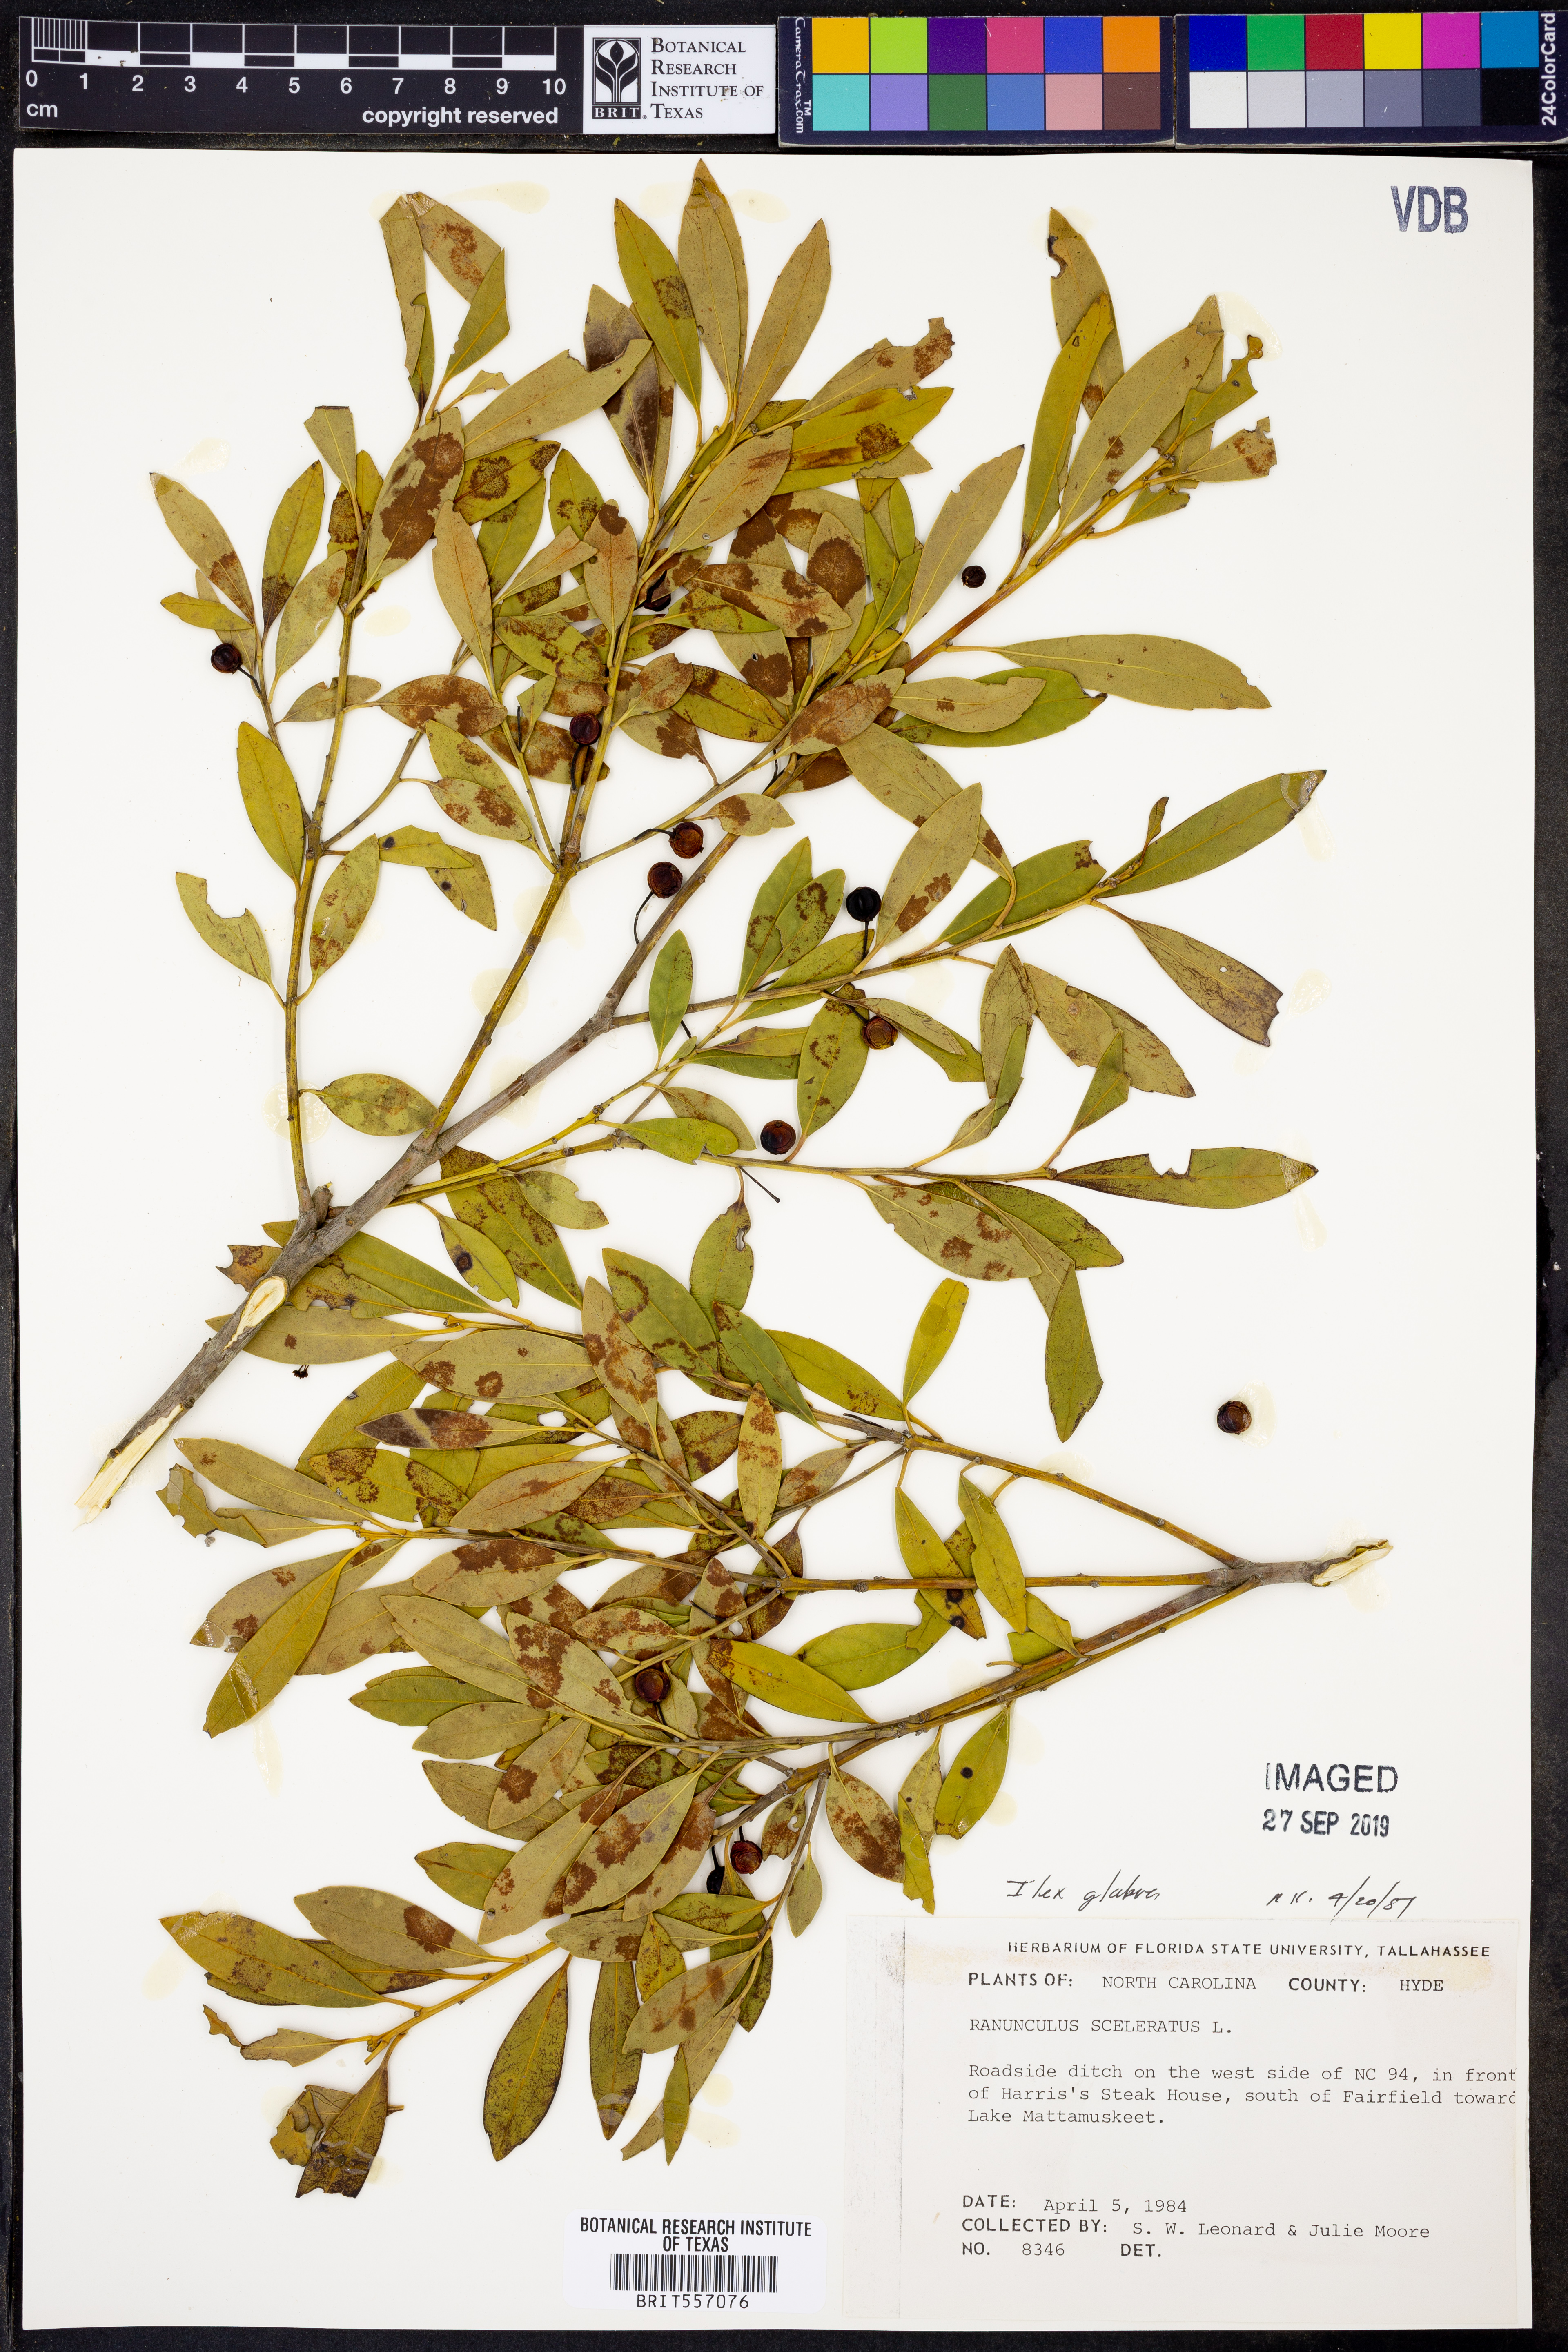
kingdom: Plantae
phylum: Tracheophyta
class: Magnoliopsida
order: Aquifoliales
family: Aquifoliaceae
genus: Ilex
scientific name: Ilex glabra
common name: Bitter gallberry
